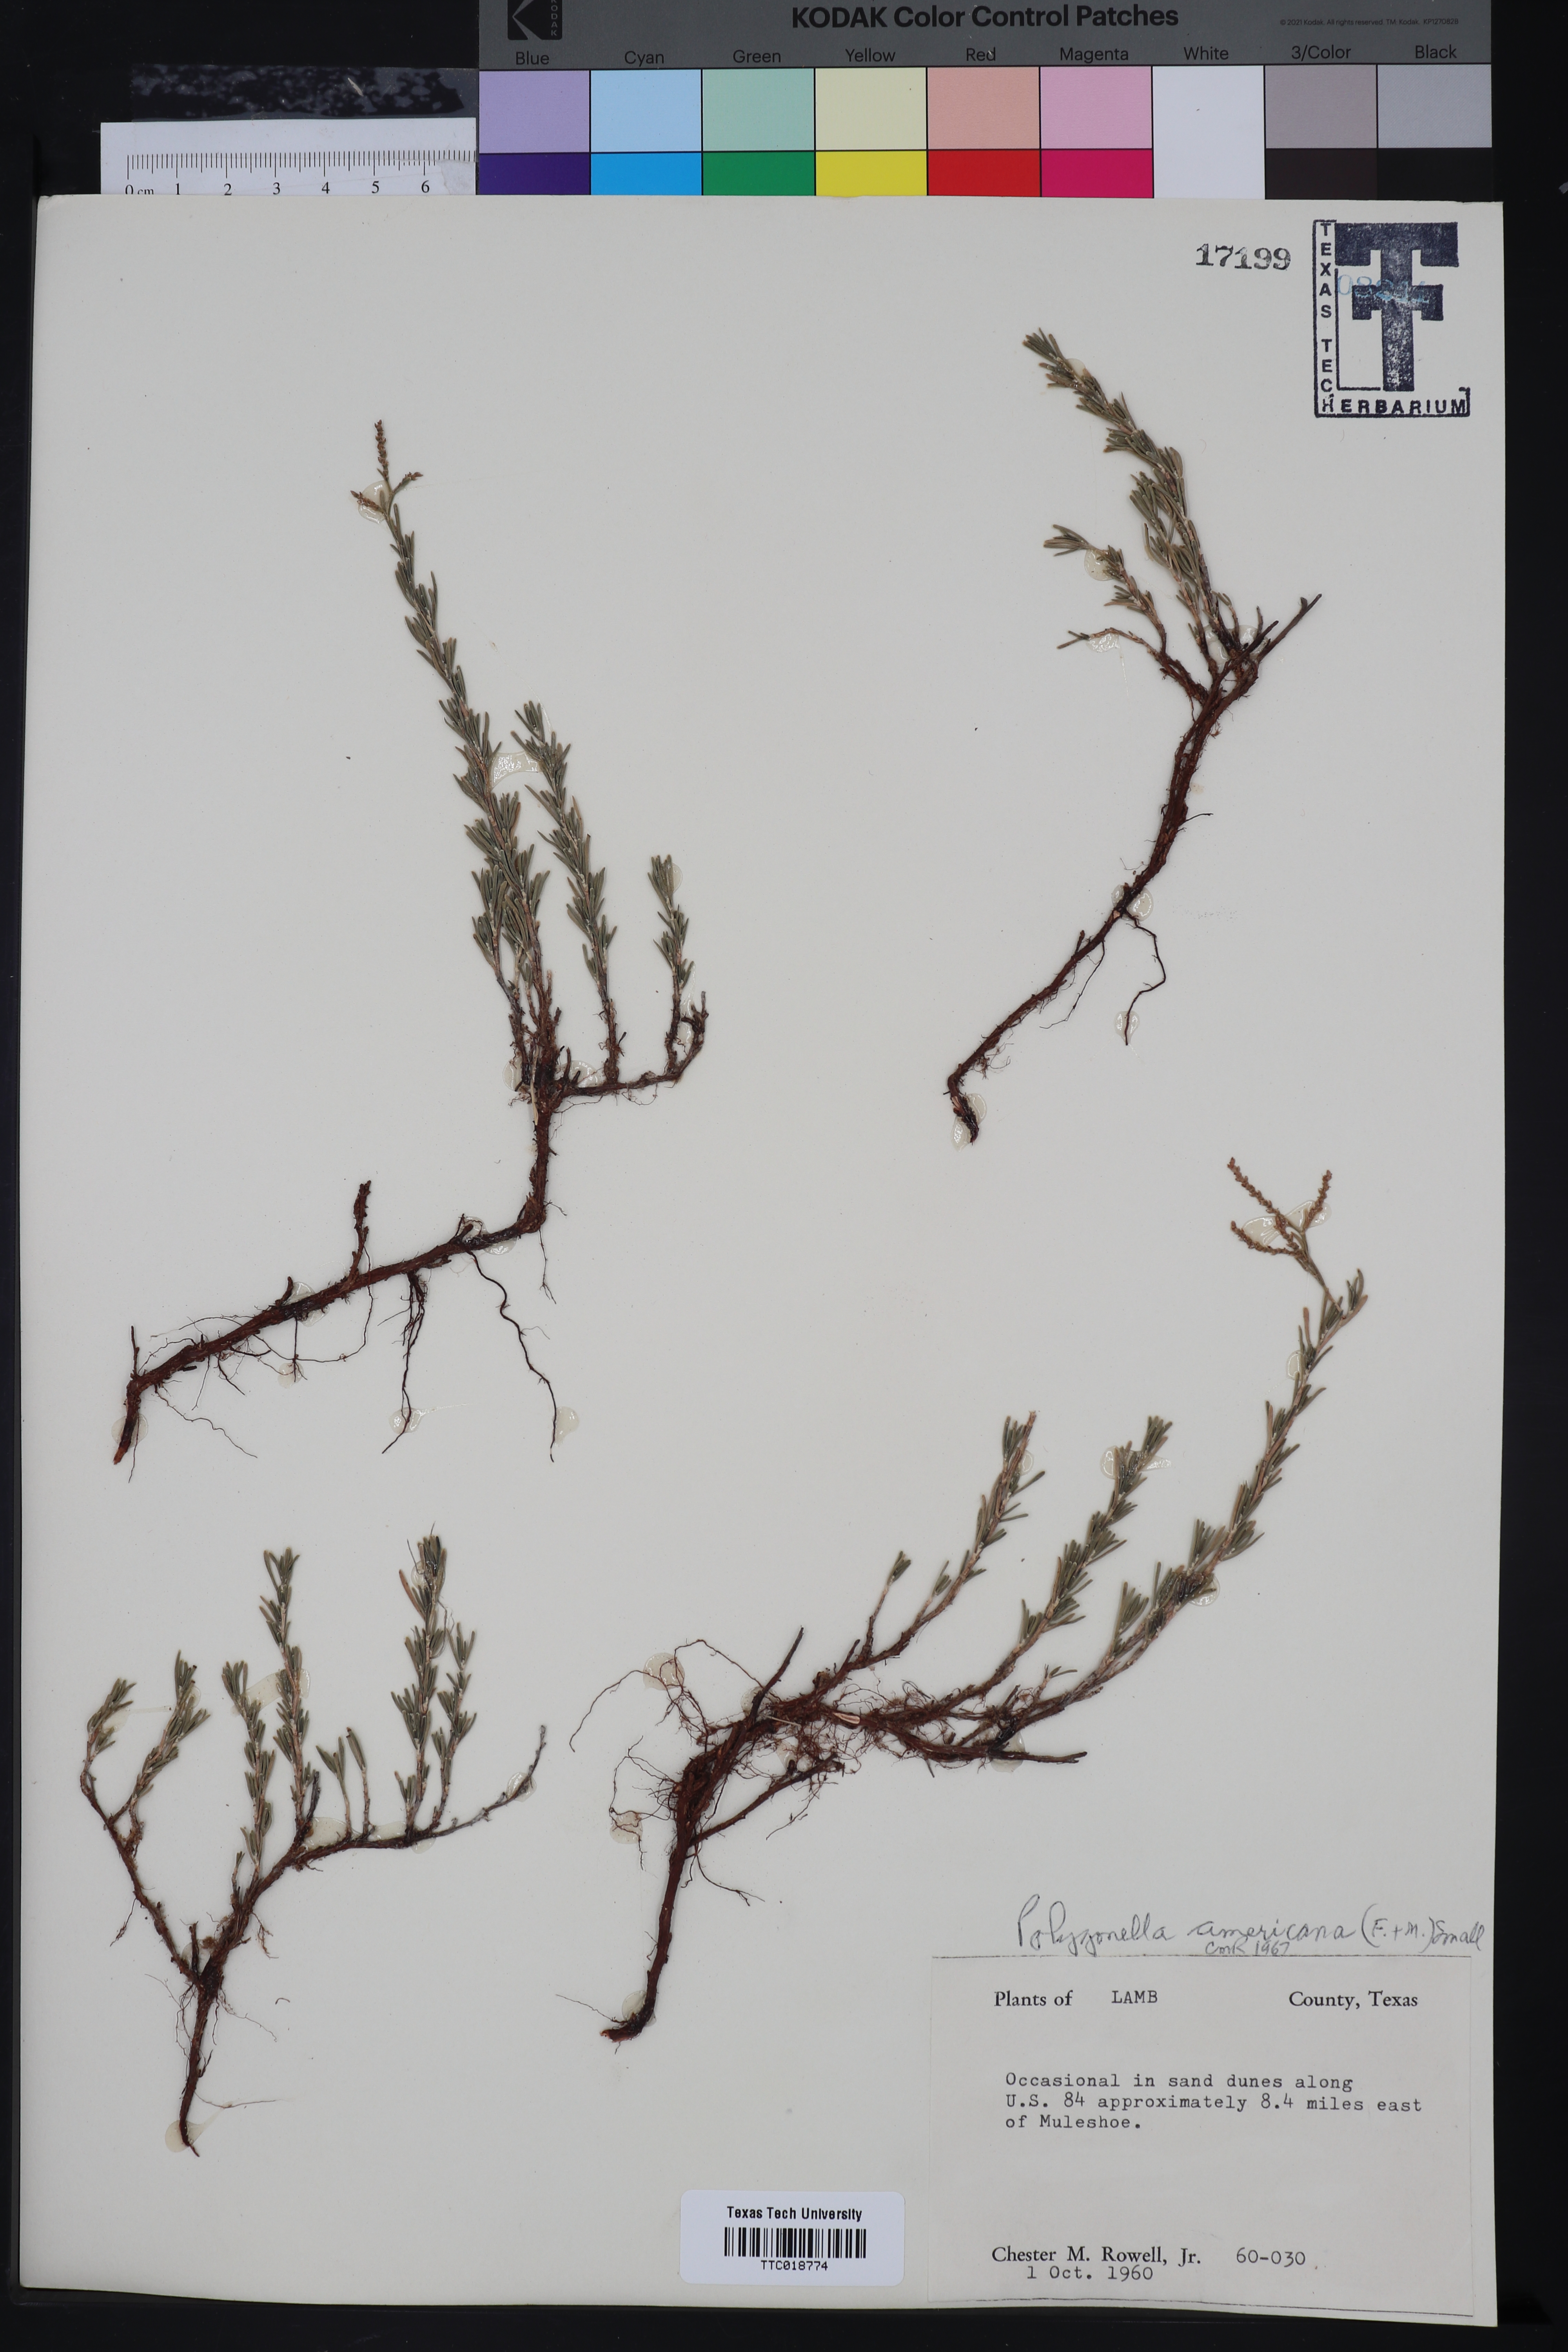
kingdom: Plantae
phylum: Tracheophyta
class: Magnoliopsida
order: Caryophyllales
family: Polygonaceae
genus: Polygonella
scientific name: Polygonella americana
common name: Southern jointweed
